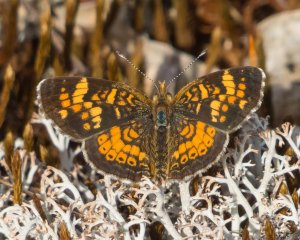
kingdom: Animalia
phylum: Arthropoda
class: Insecta
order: Lepidoptera
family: Nymphalidae
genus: Phyciodes
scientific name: Phyciodes batesii
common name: Tawny Crescent
